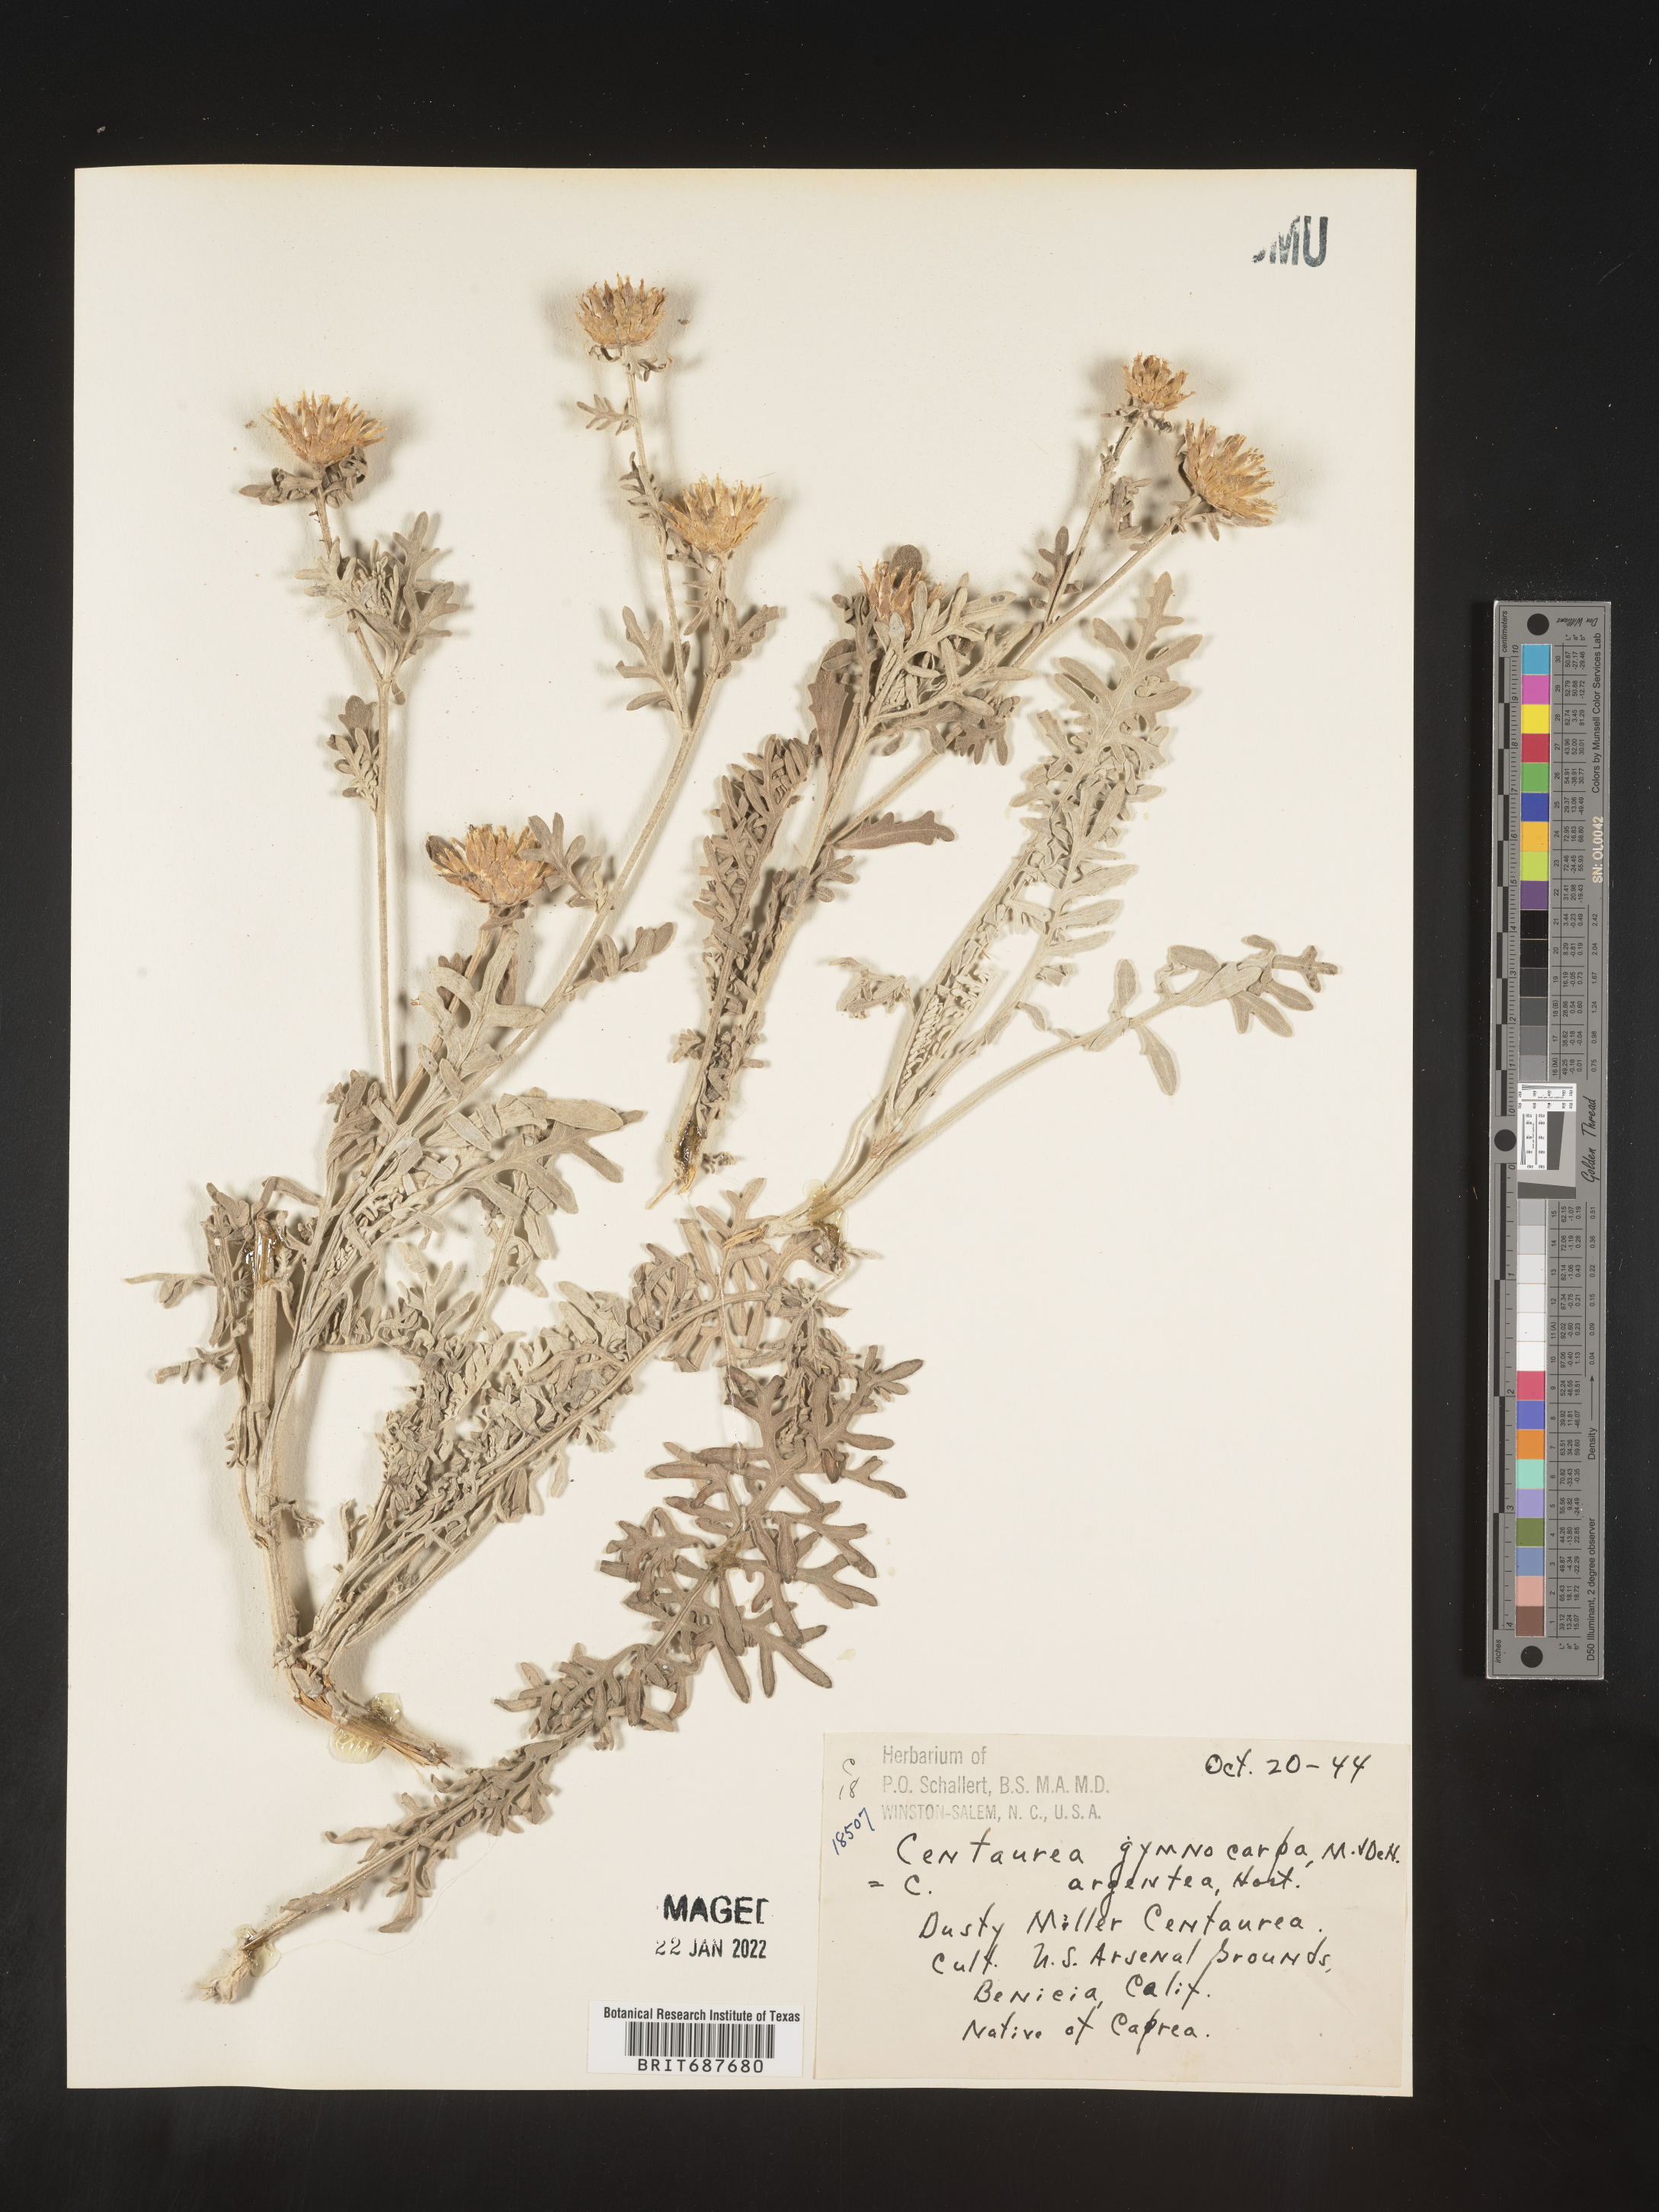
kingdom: Plantae
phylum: Tracheophyta
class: Magnoliopsida
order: Asterales
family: Asteraceae
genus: Centaurea
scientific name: Centaurea
